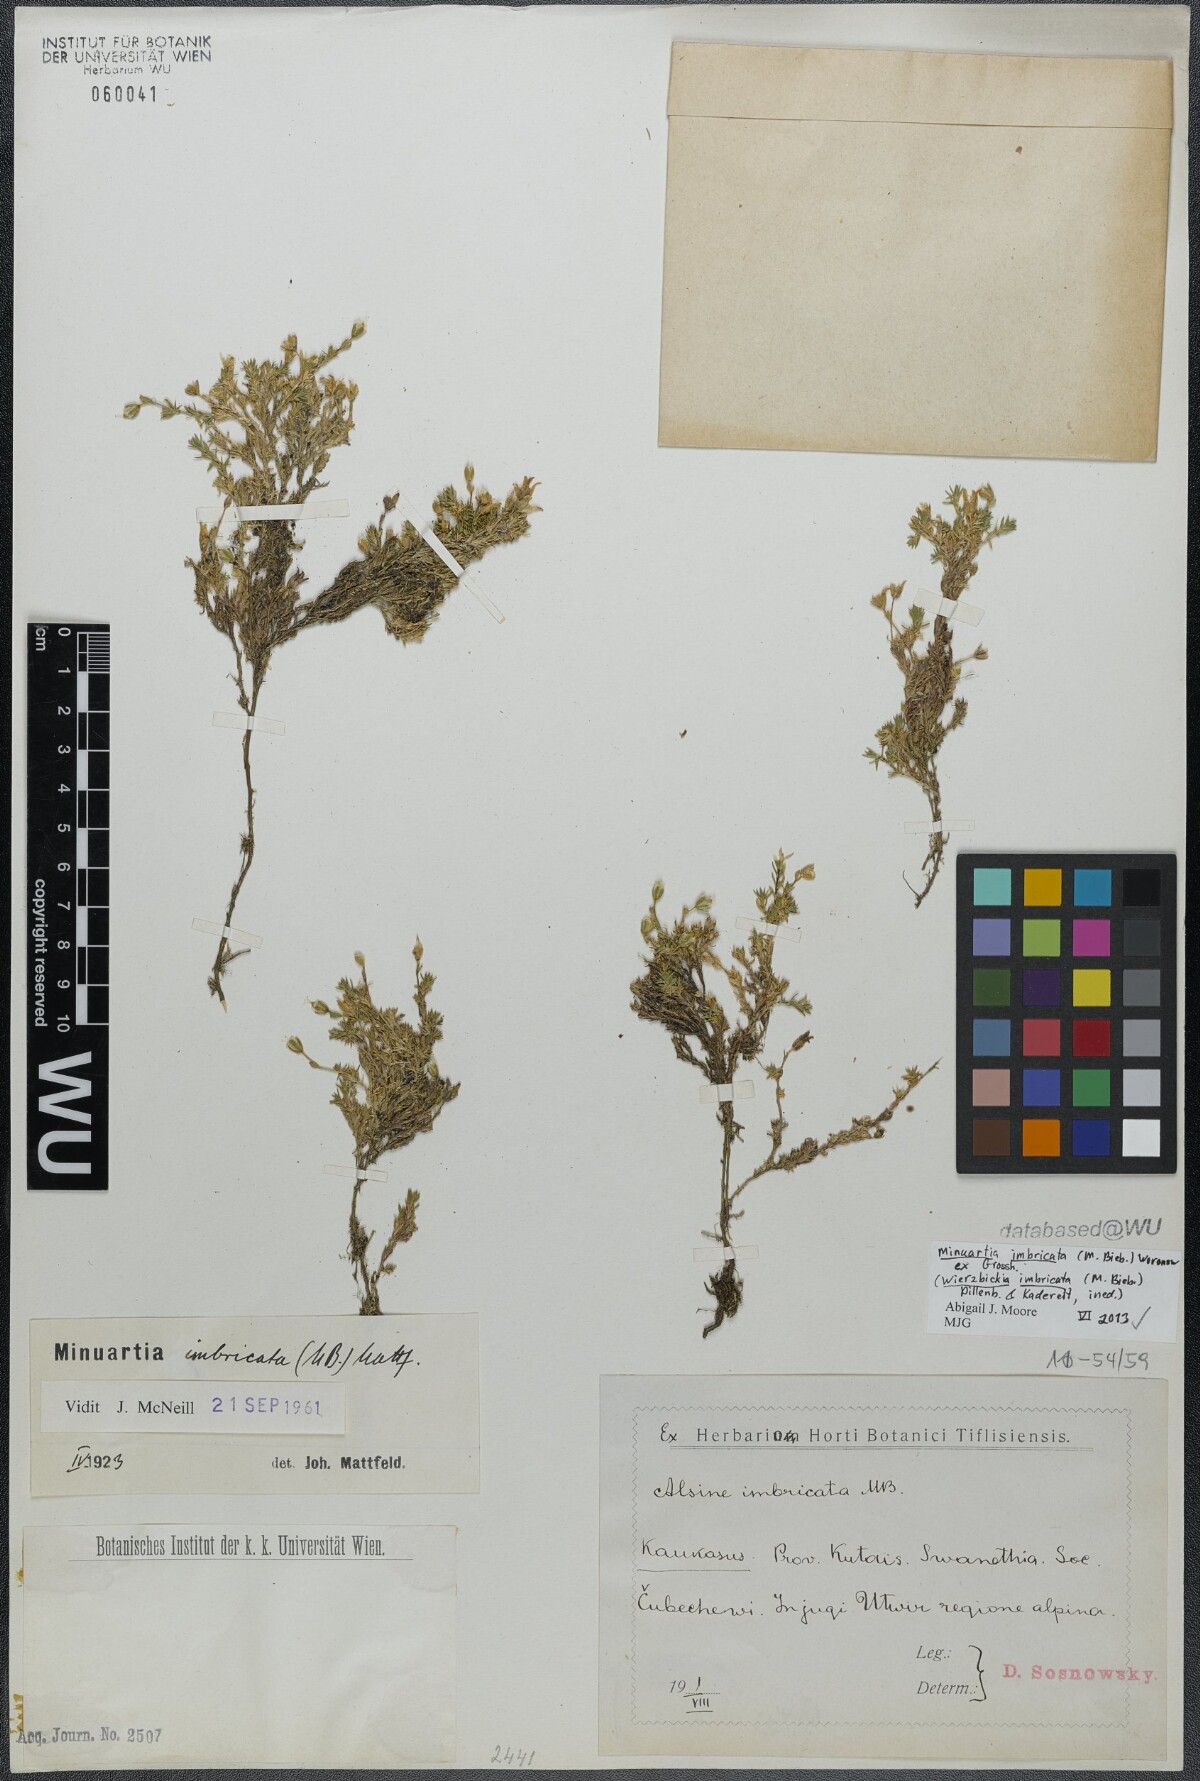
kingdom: Plantae
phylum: Tracheophyta
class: Magnoliopsida
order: Caryophyllales
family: Caryophyllaceae
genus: Pseudocherleria
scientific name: Pseudocherleria imbricata
